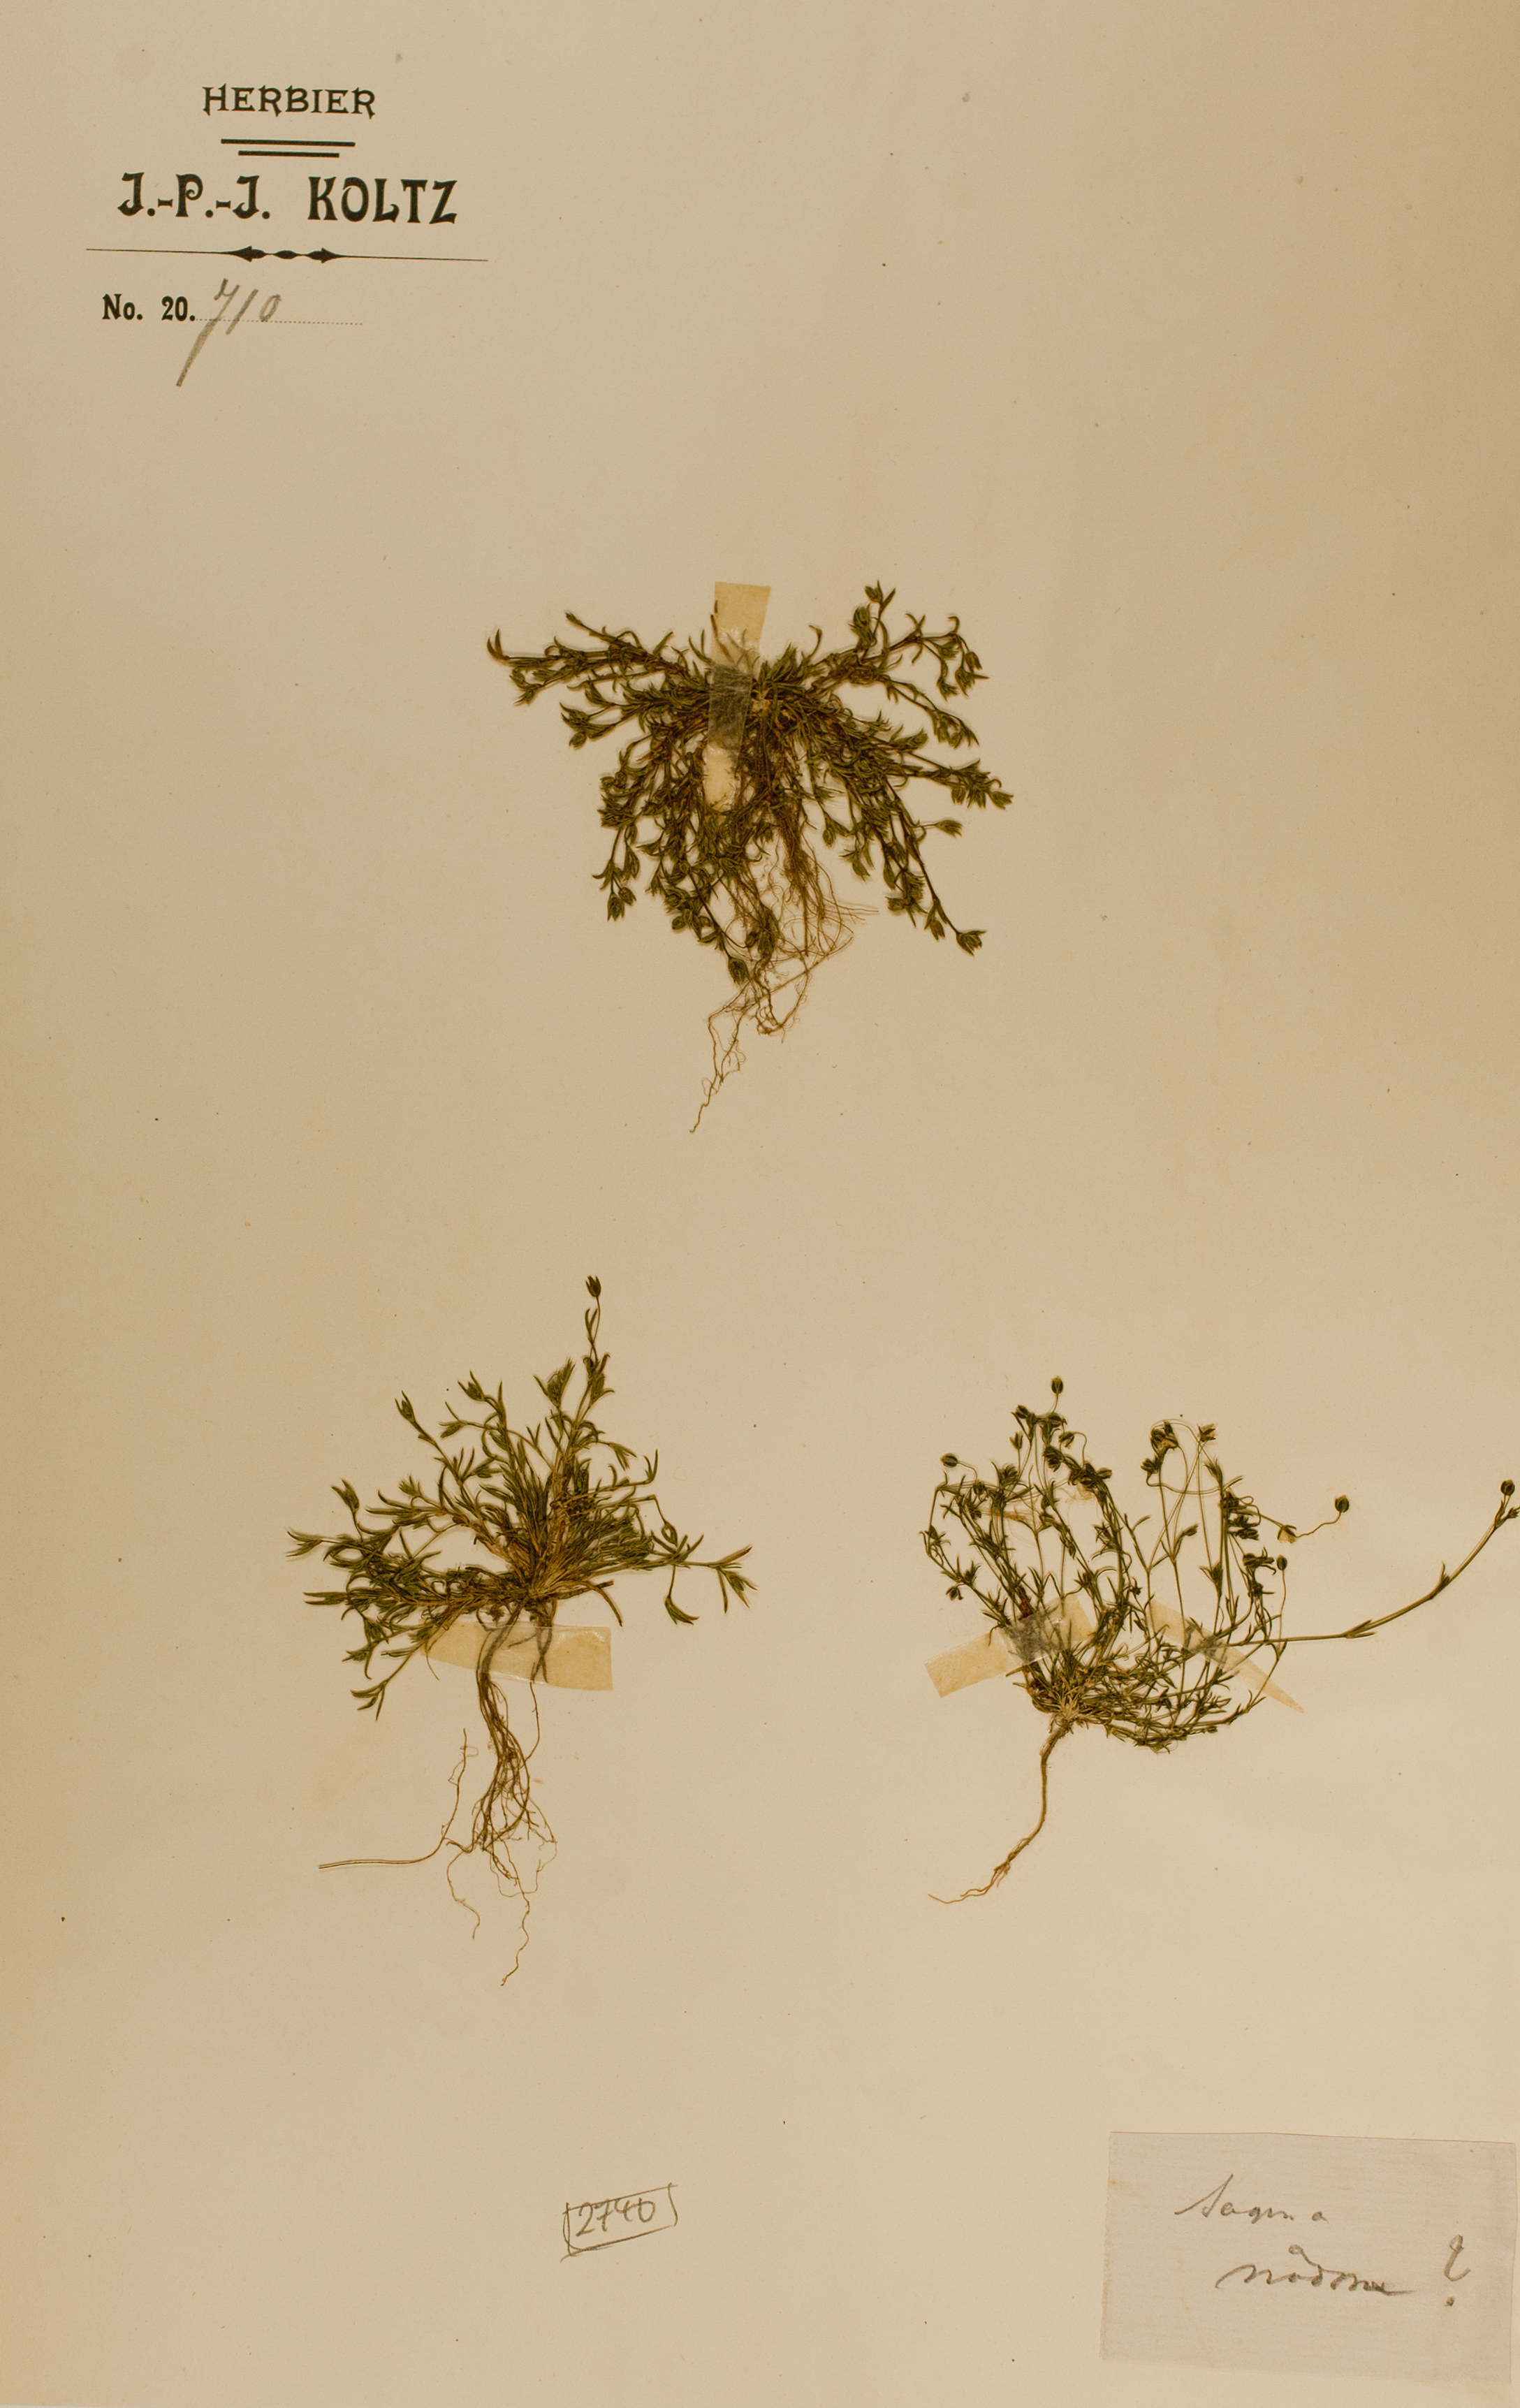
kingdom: Plantae
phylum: Tracheophyta
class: Magnoliopsida
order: Caryophyllales
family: Caryophyllaceae
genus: Sagina
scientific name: Sagina nodosa
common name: Knotted pearlwort
